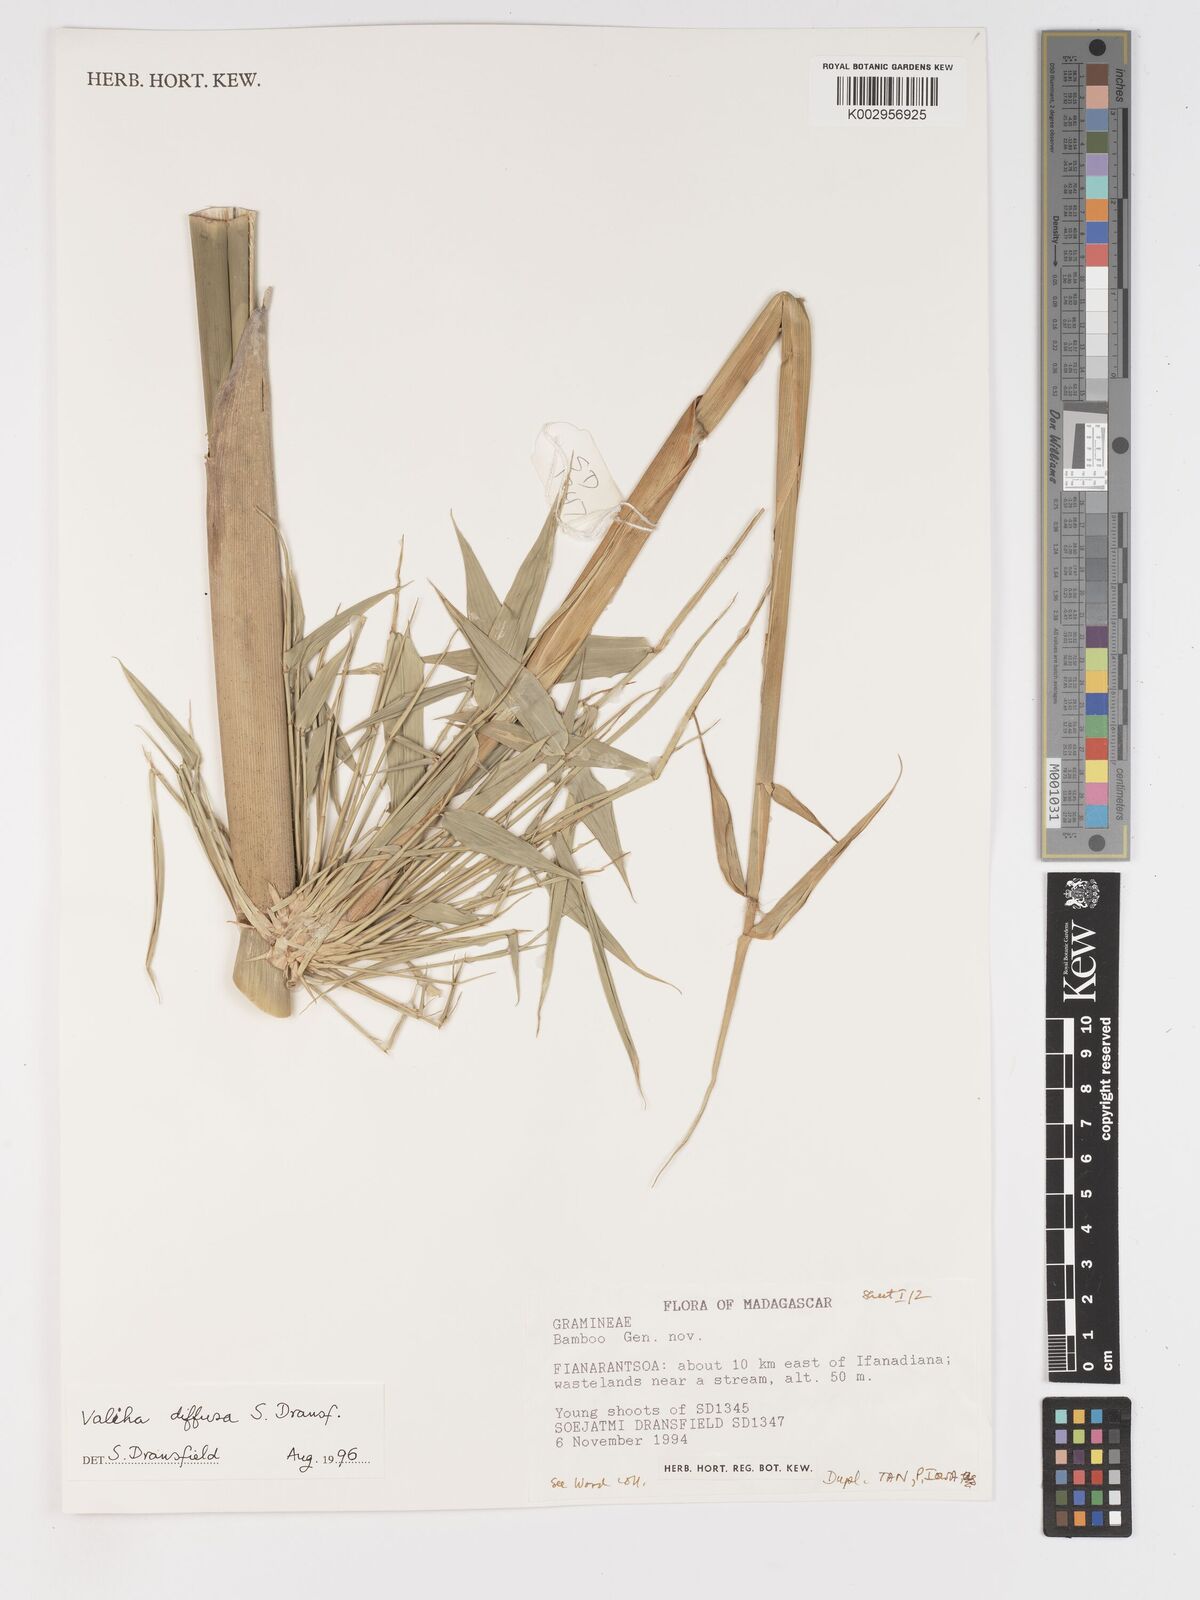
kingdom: Plantae
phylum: Tracheophyta
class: Liliopsida
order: Poales
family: Poaceae
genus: Valiha
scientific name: Valiha
